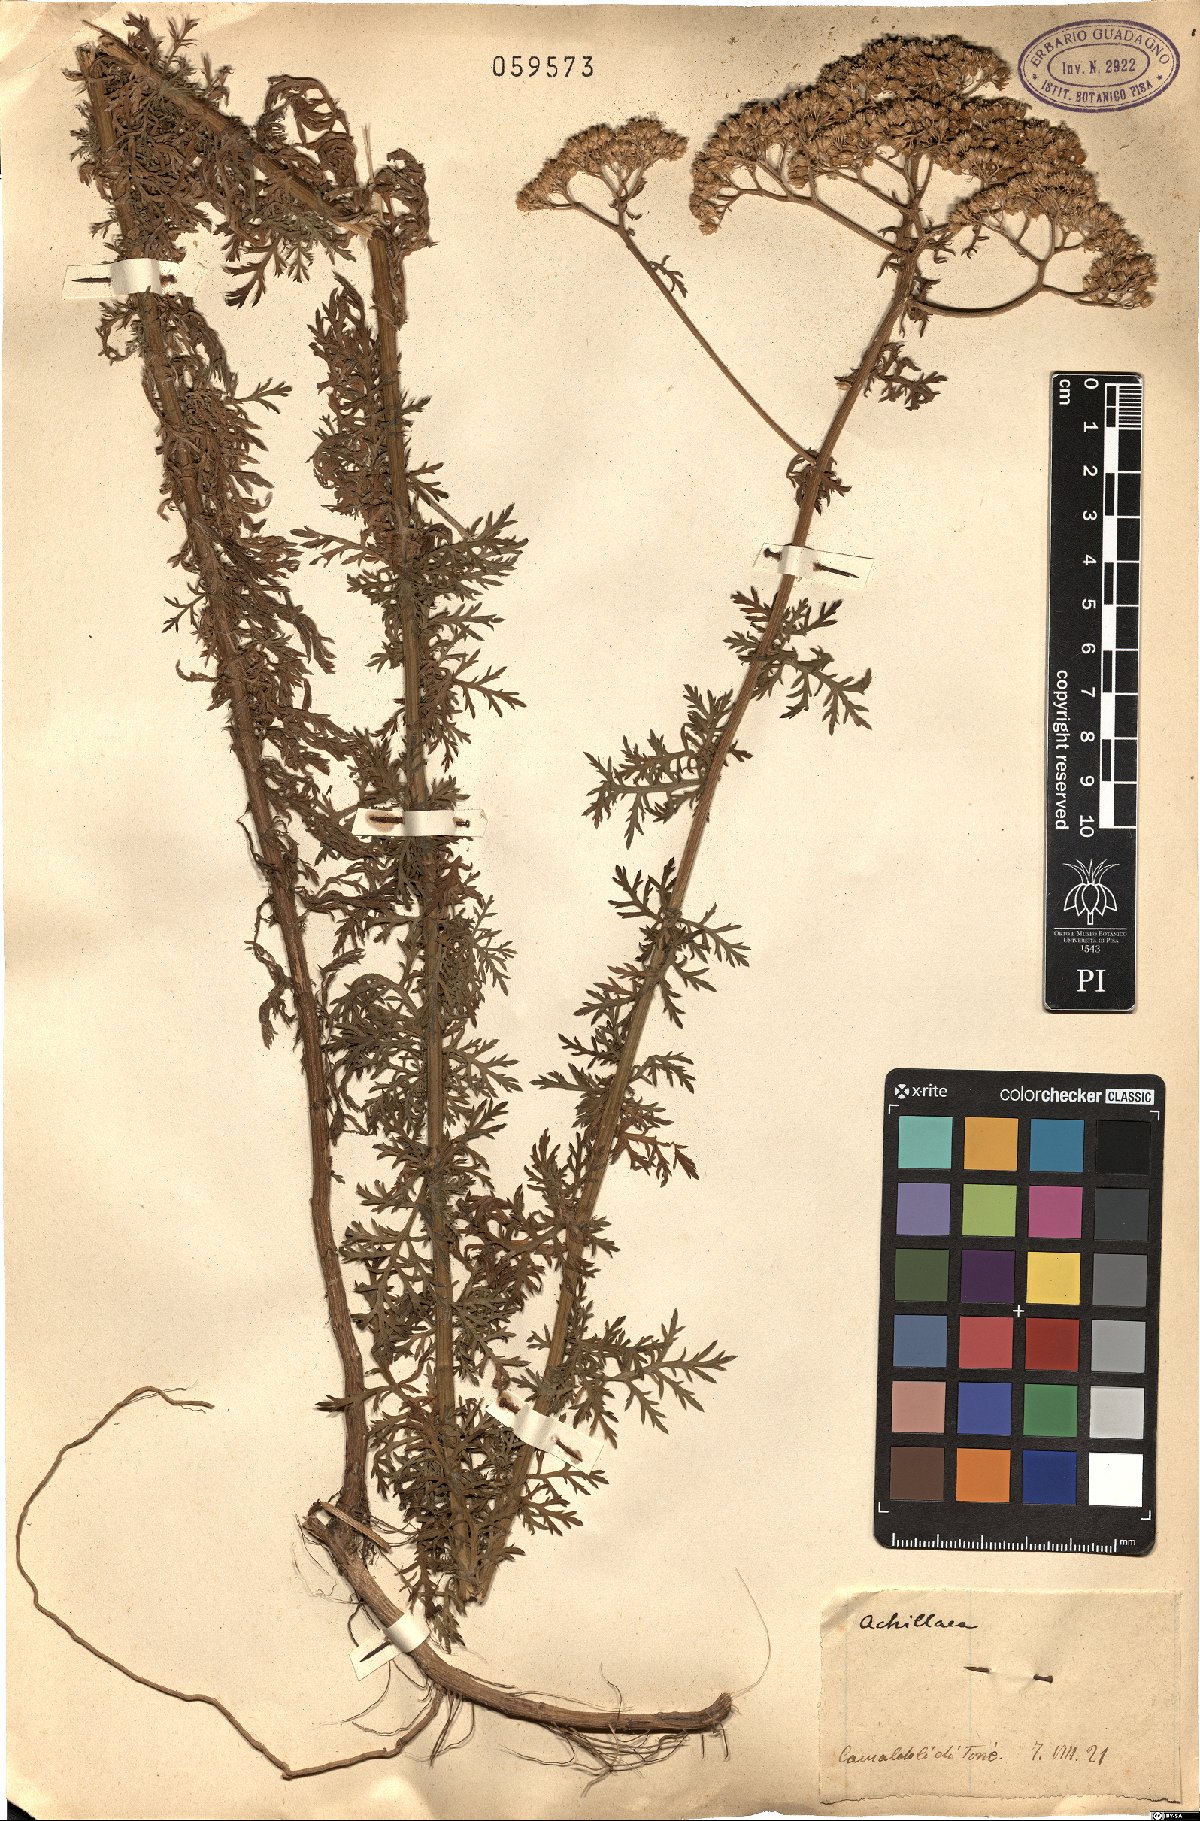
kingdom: Plantae
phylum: Tracheophyta
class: Magnoliopsida
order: Asterales
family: Asteraceae
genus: Achillea
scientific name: Achillea
